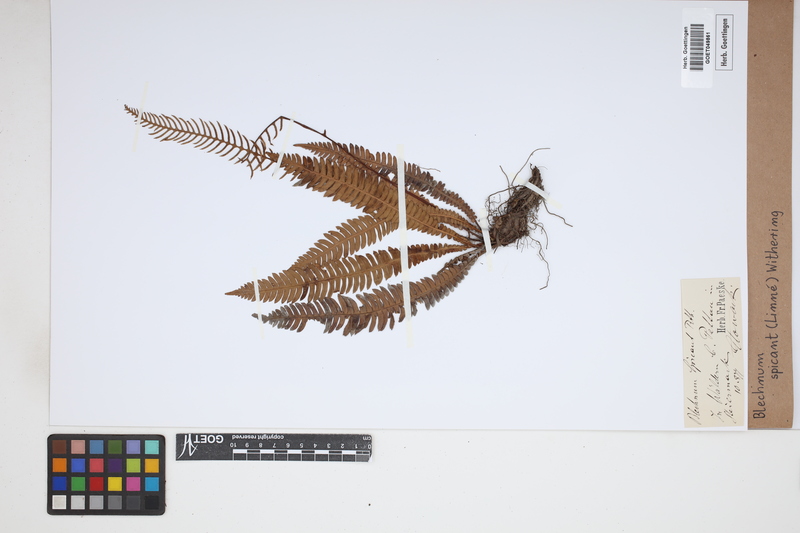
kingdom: Plantae
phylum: Tracheophyta
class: Polypodiopsida
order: Polypodiales
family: Blechnaceae
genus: Struthiopteris
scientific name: Struthiopteris spicant
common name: Deer fern
